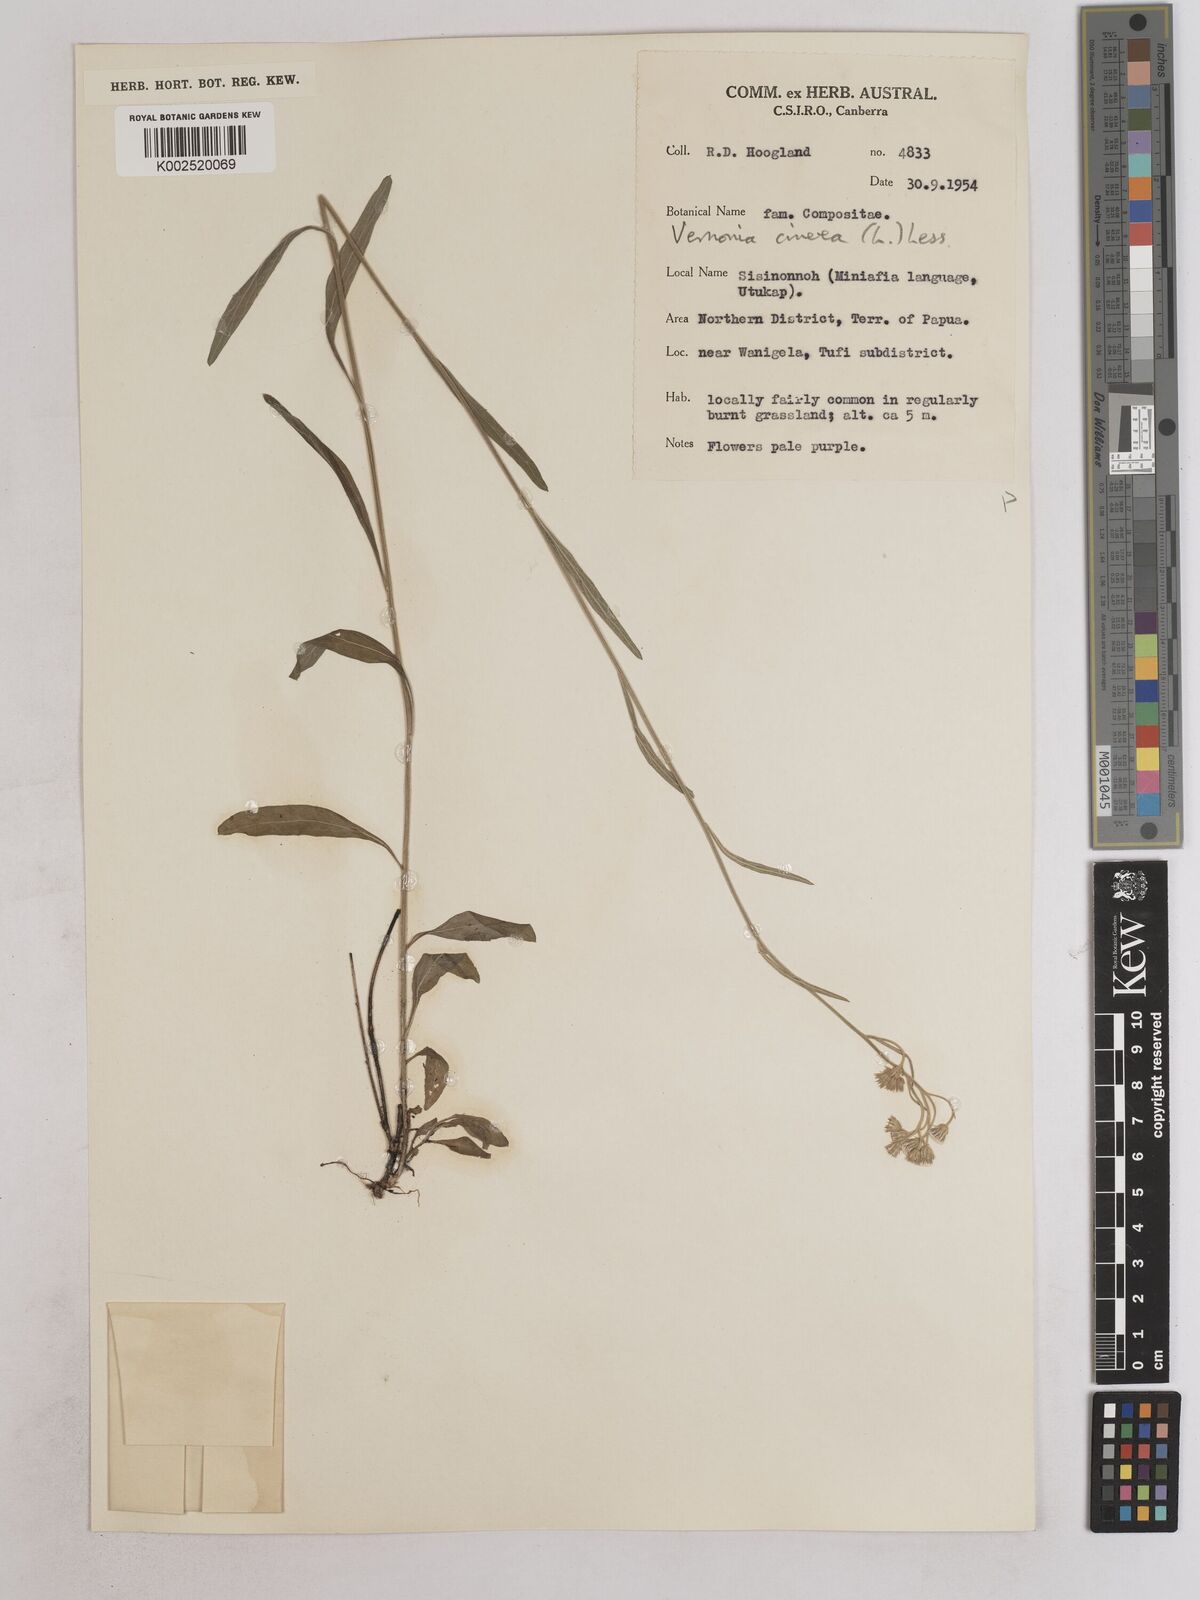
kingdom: Plantae
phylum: Tracheophyta
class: Magnoliopsida
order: Asterales
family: Asteraceae
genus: Cyanthillium
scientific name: Cyanthillium cinereum
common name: Little ironweed
